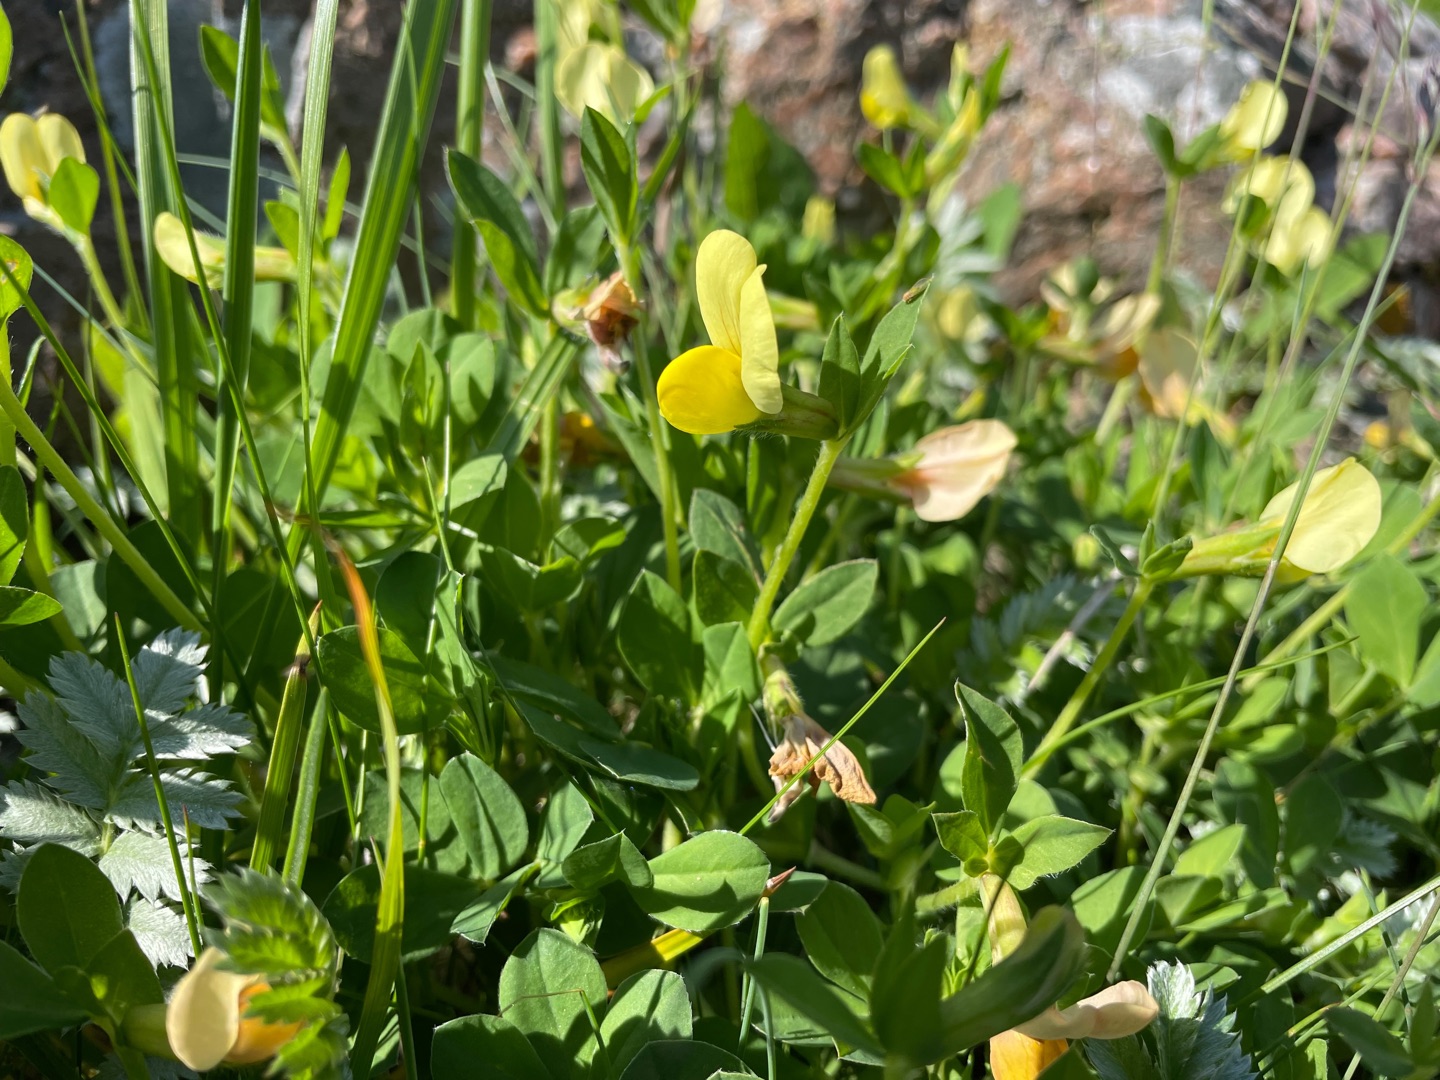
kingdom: Plantae
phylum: Tracheophyta
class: Magnoliopsida
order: Fabales
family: Fabaceae
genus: Lotus
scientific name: Lotus maritimus
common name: Kantbælg
